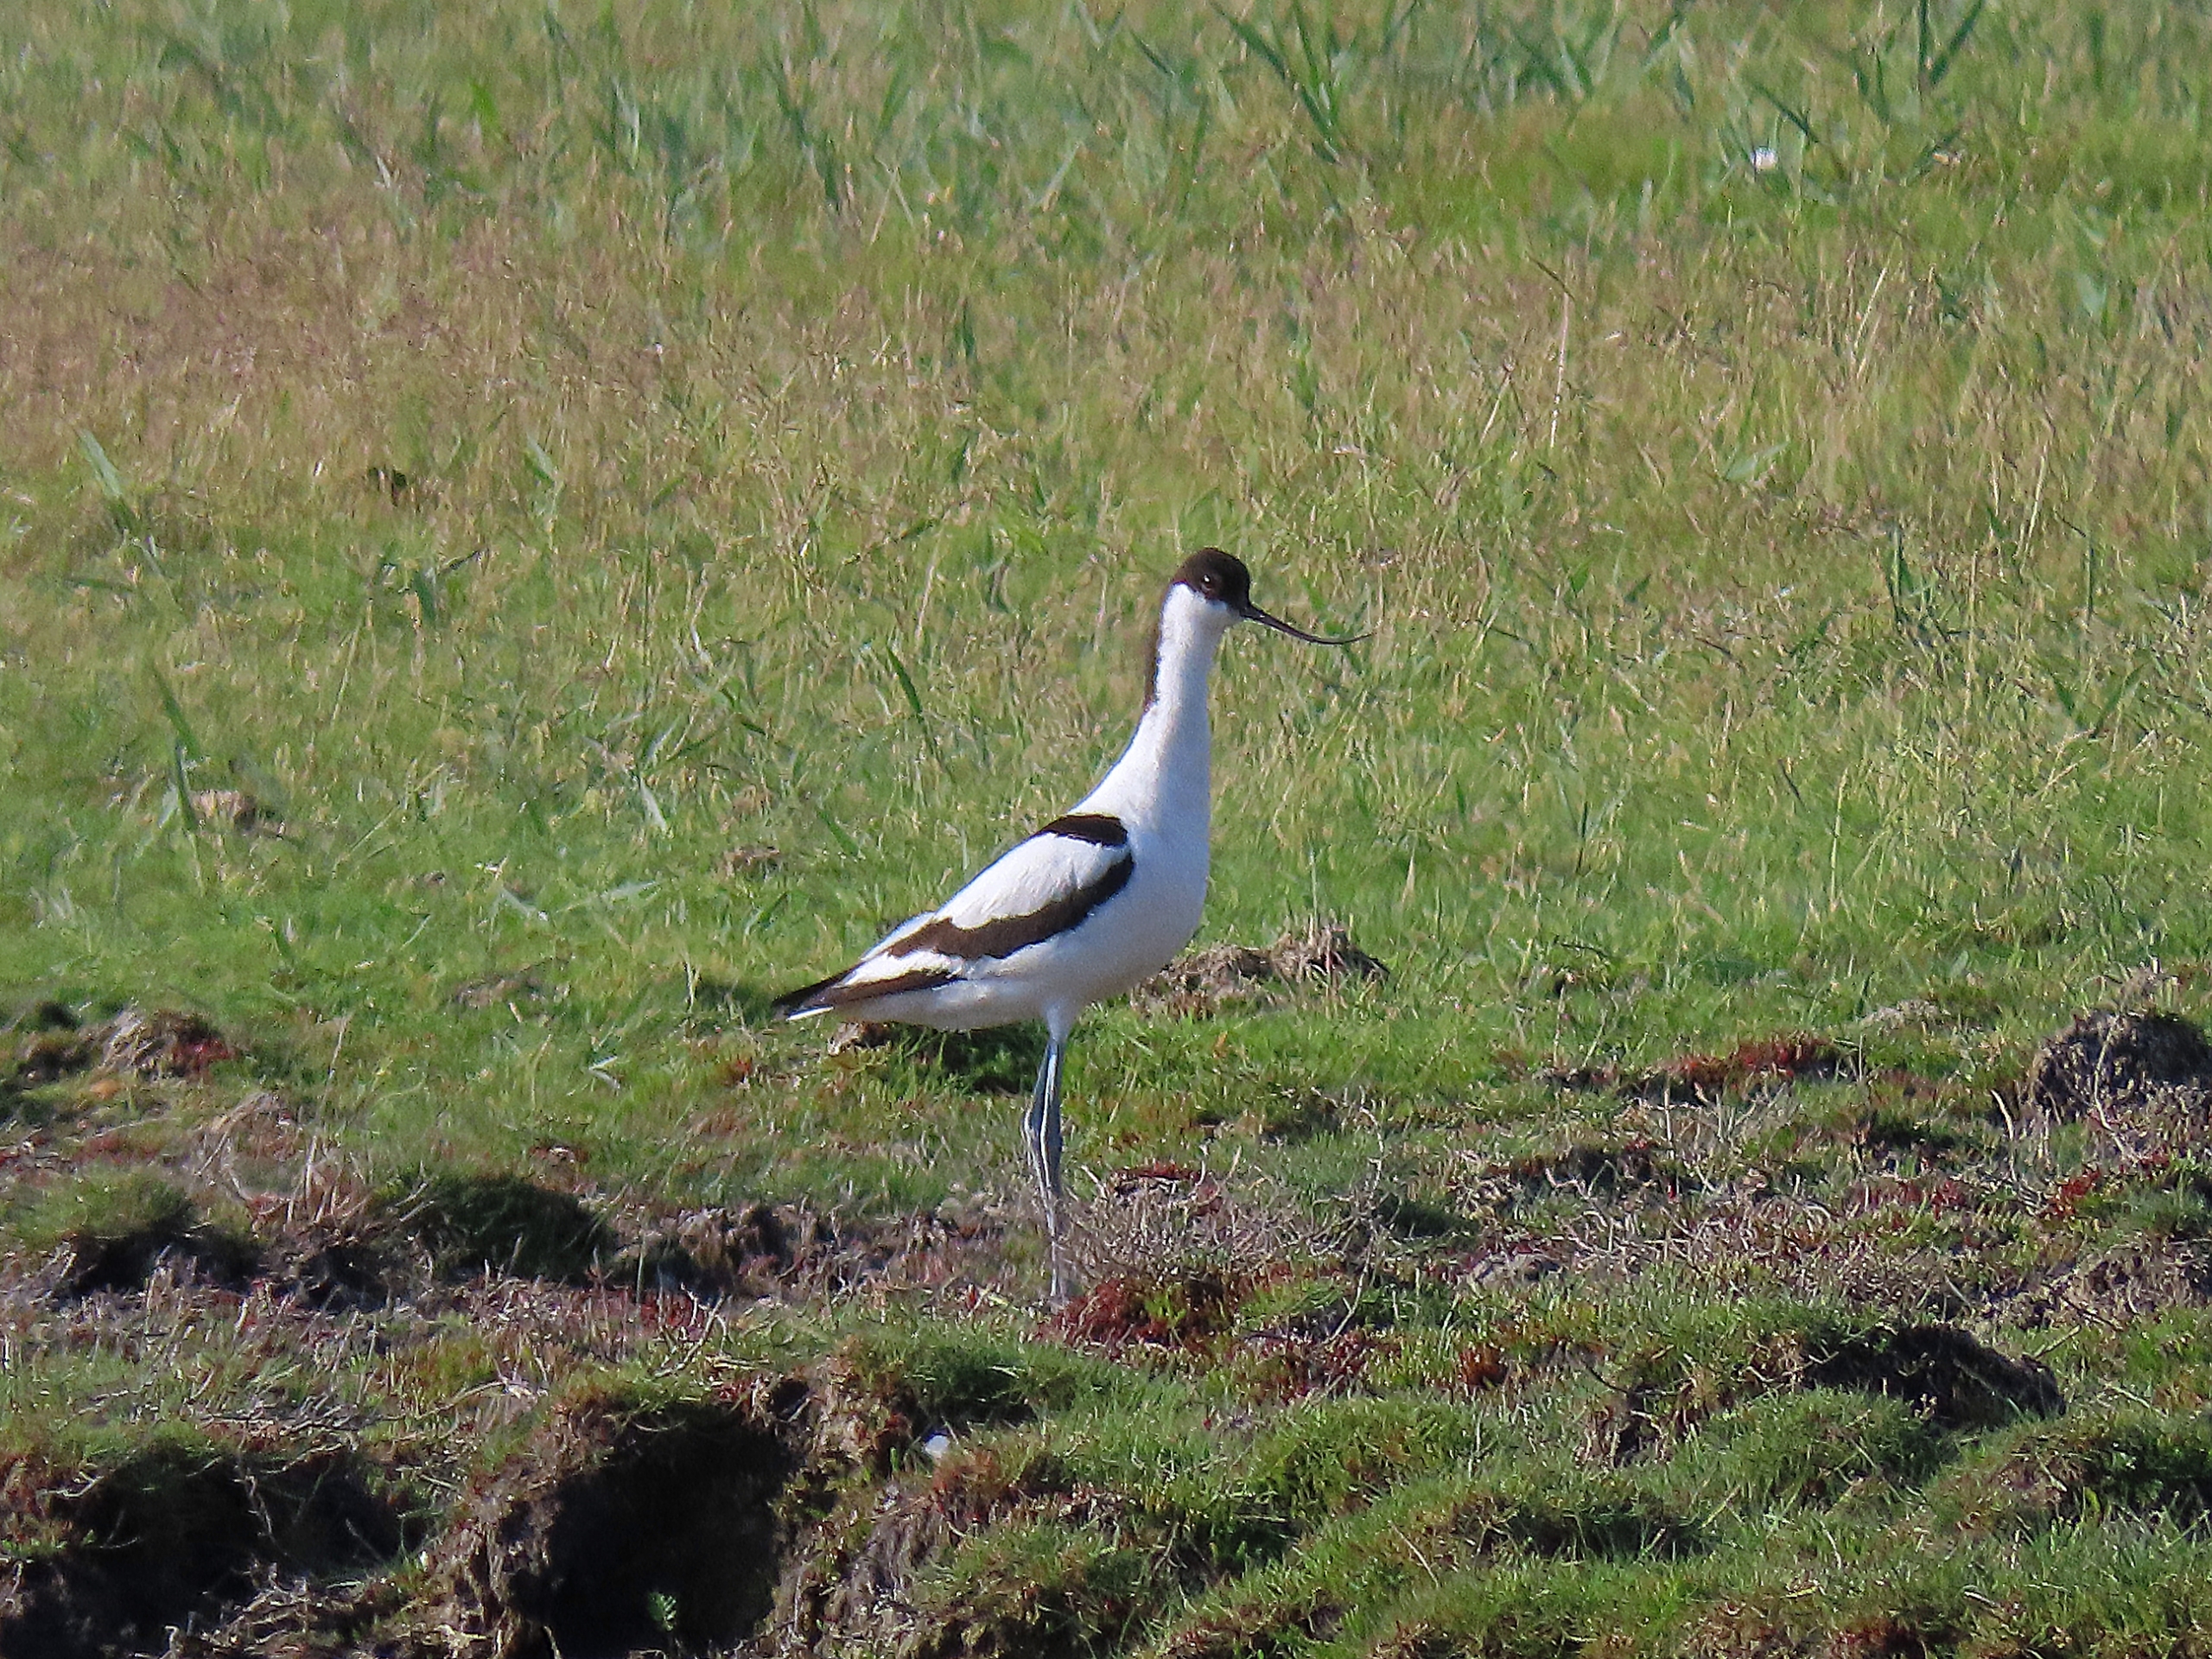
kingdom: Animalia
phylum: Chordata
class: Aves
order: Charadriiformes
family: Recurvirostridae
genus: Recurvirostra
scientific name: Recurvirostra avosetta
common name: Klyde
